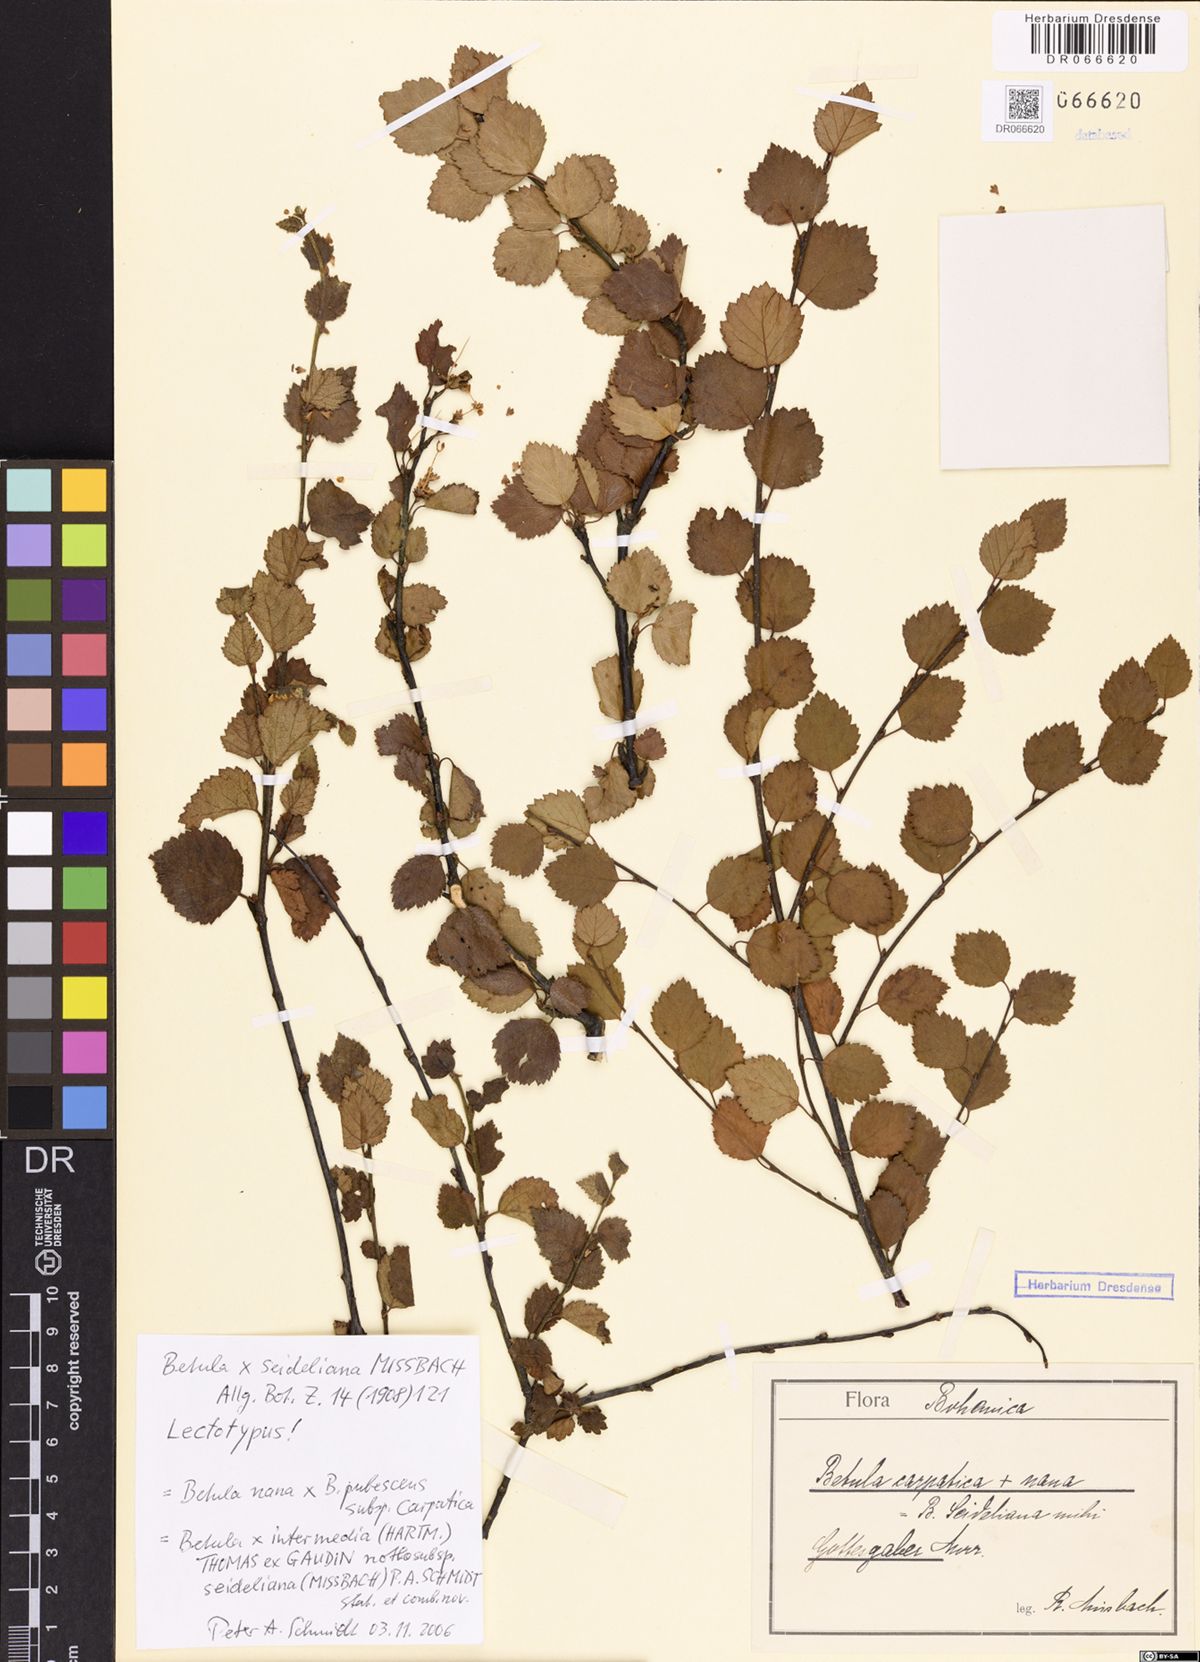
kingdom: Plantae
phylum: Tracheophyta
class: Magnoliopsida
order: Fagales
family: Betulaceae
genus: Betula
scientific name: Betula intermedia
